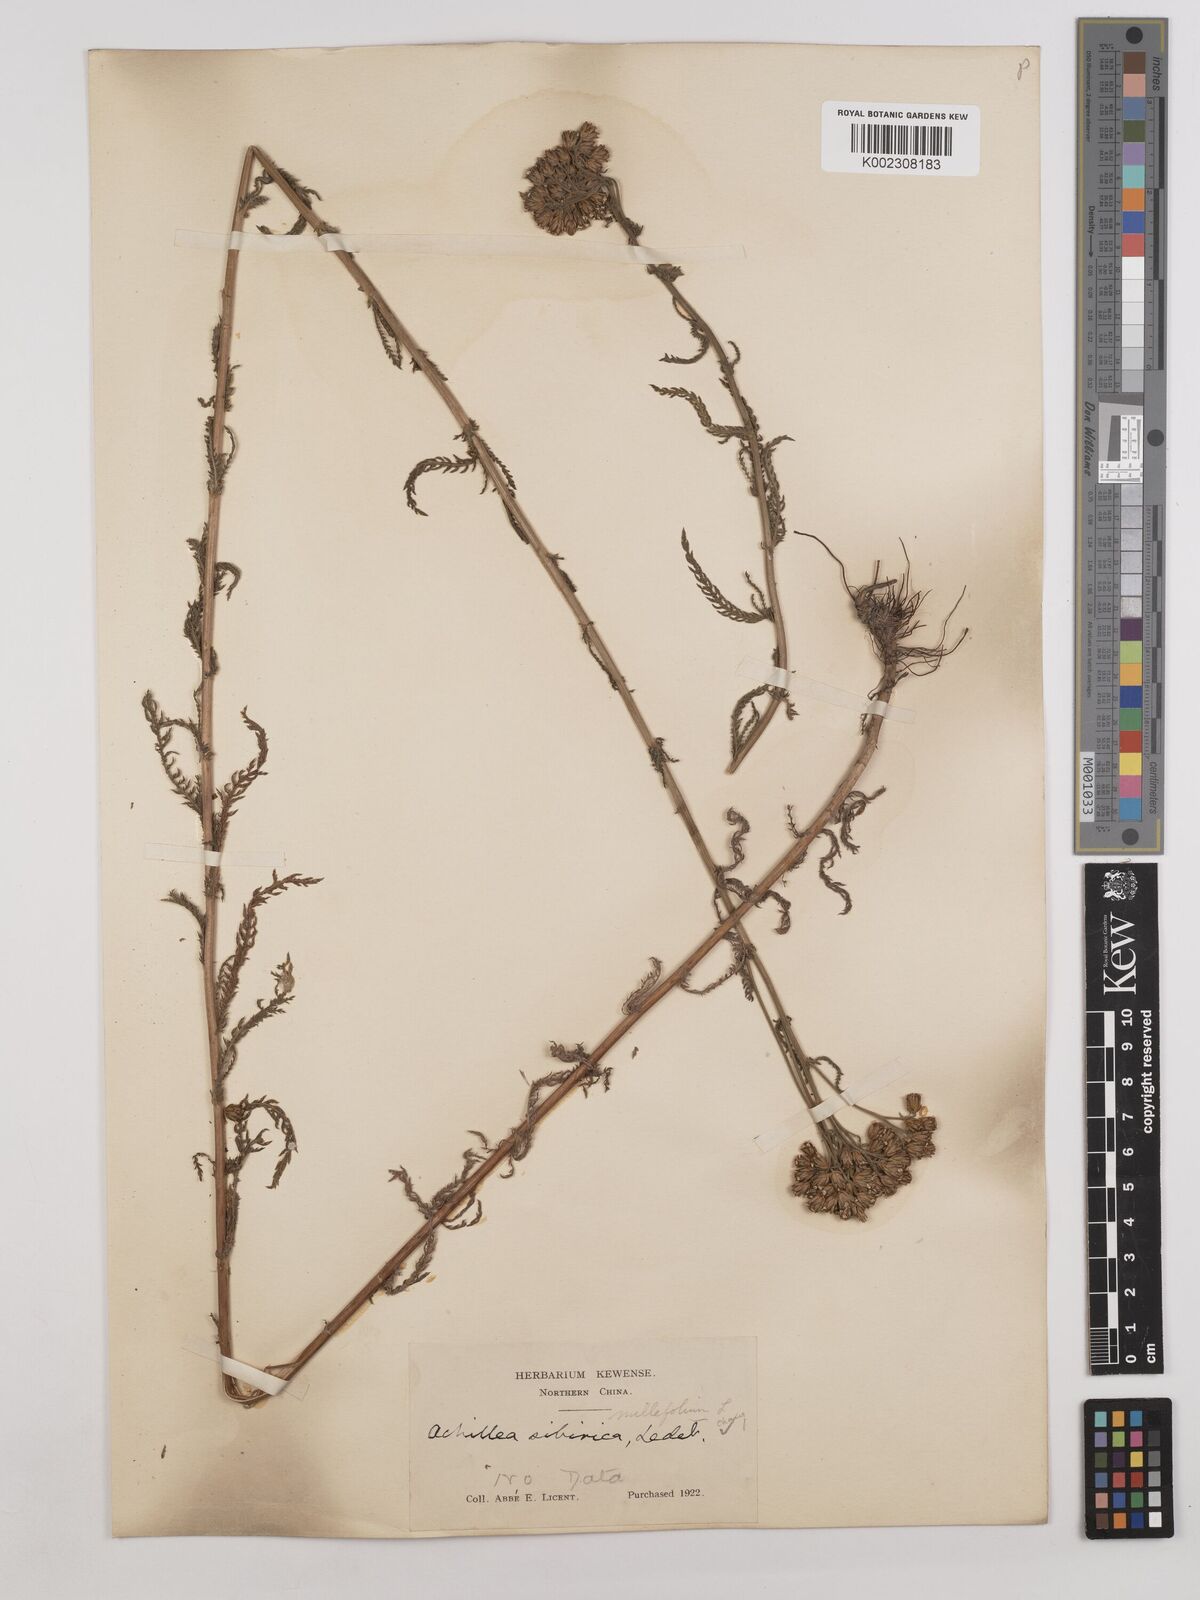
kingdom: Plantae
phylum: Tracheophyta
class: Magnoliopsida
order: Asterales
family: Asteraceae
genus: Achillea
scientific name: Achillea alpina
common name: Siberian yarrow
